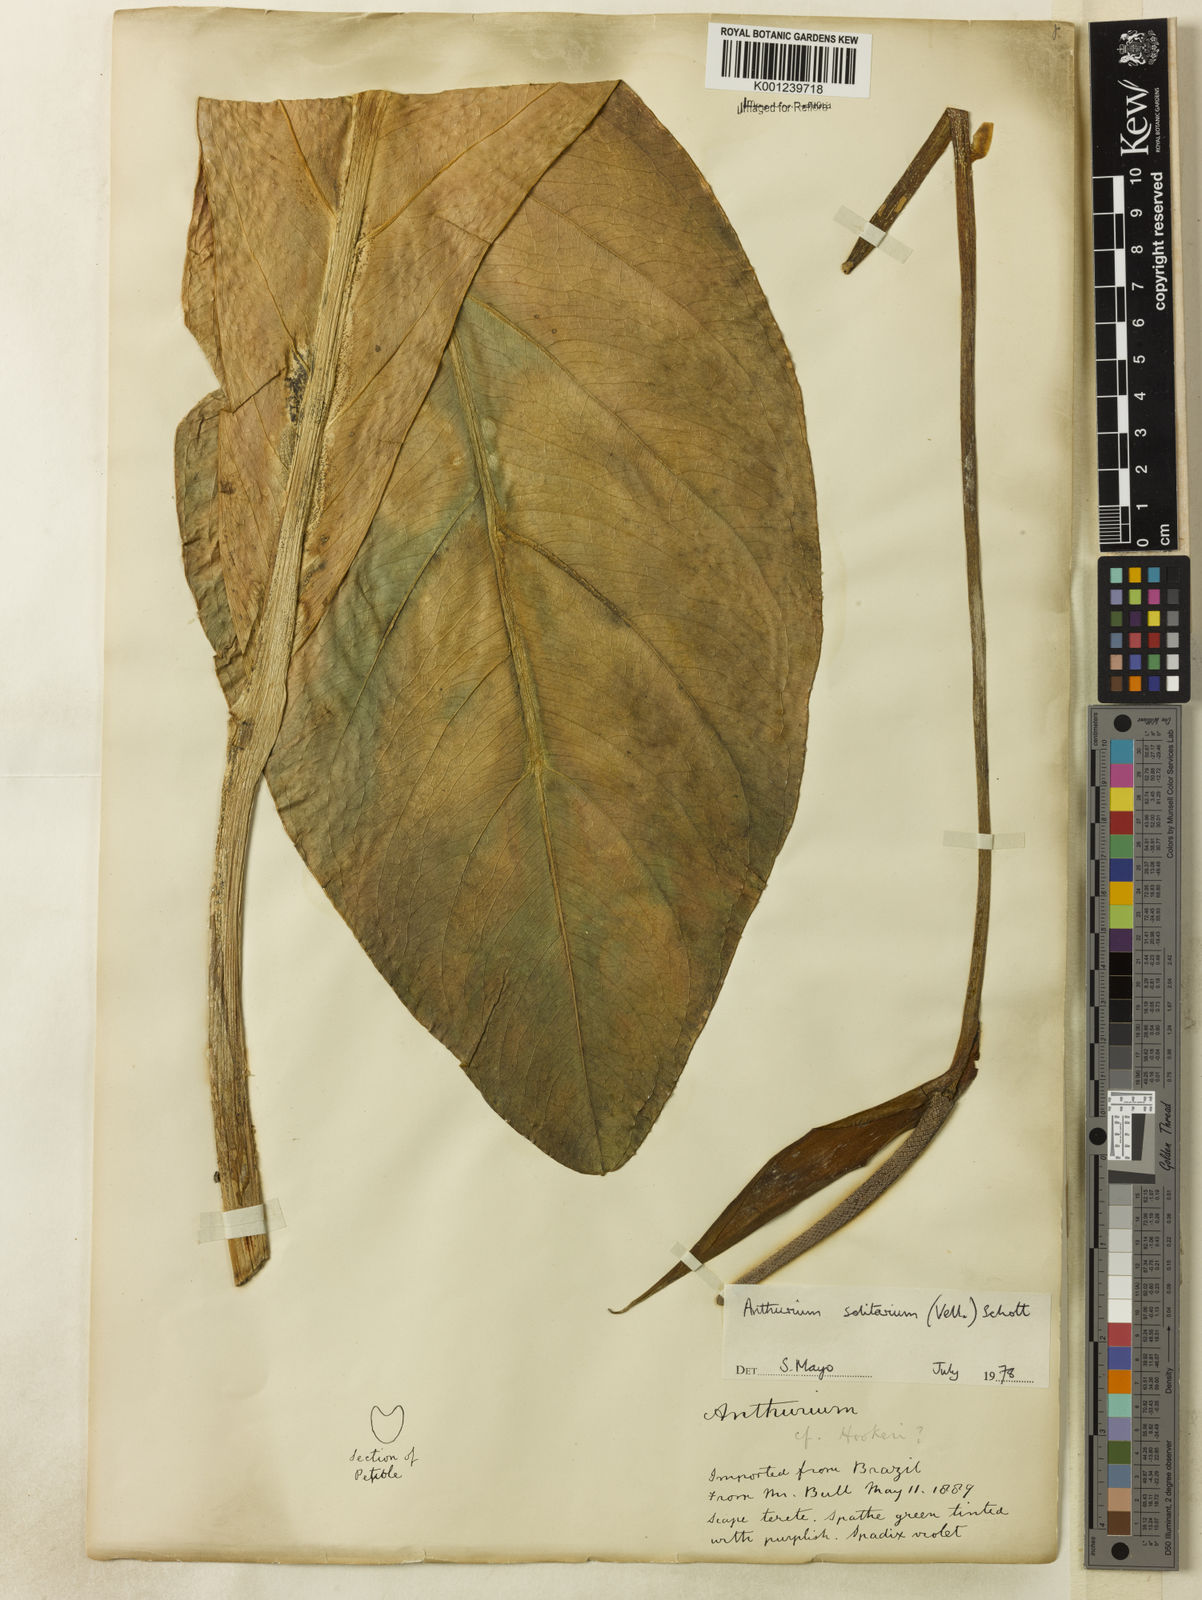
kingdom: Plantae
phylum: Tracheophyta
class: Liliopsida
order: Alismatales
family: Araceae
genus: Anthurium
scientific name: Anthurium solitarium
